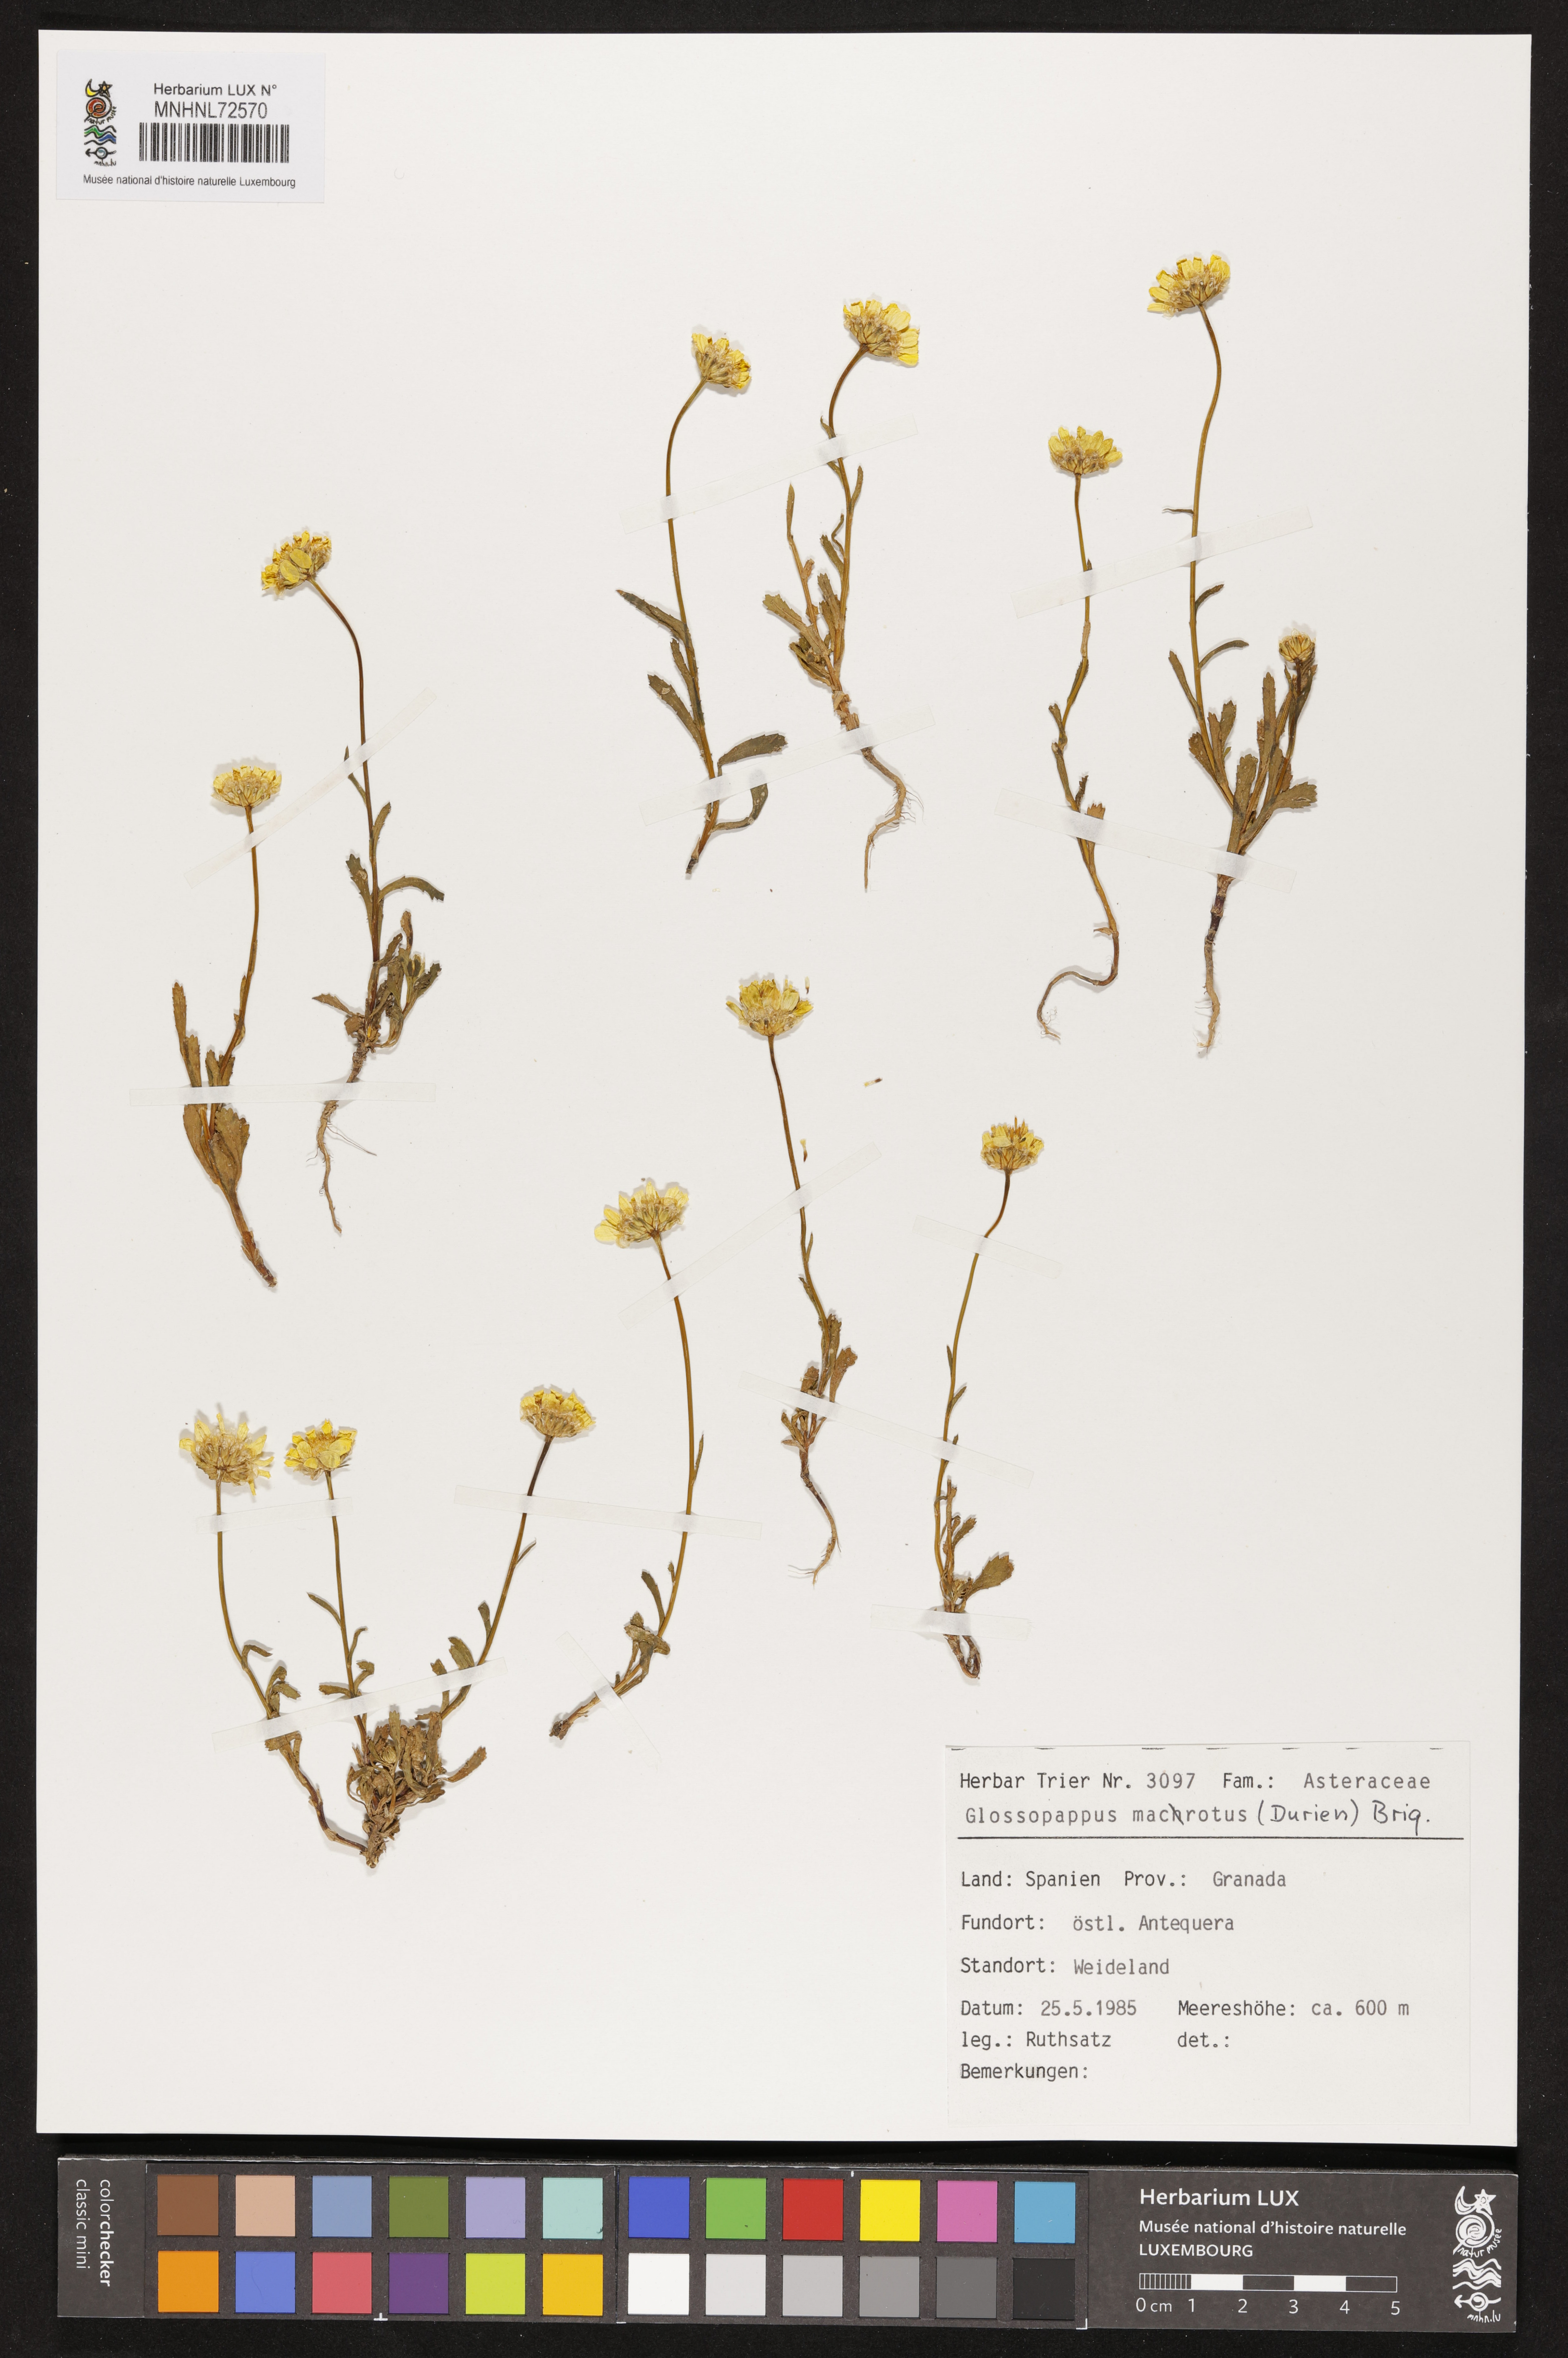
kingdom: Plantae
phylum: Tracheophyta
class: Magnoliopsida
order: Asterales
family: Asteraceae
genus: Glossopappus
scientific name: Glossopappus macrotus
